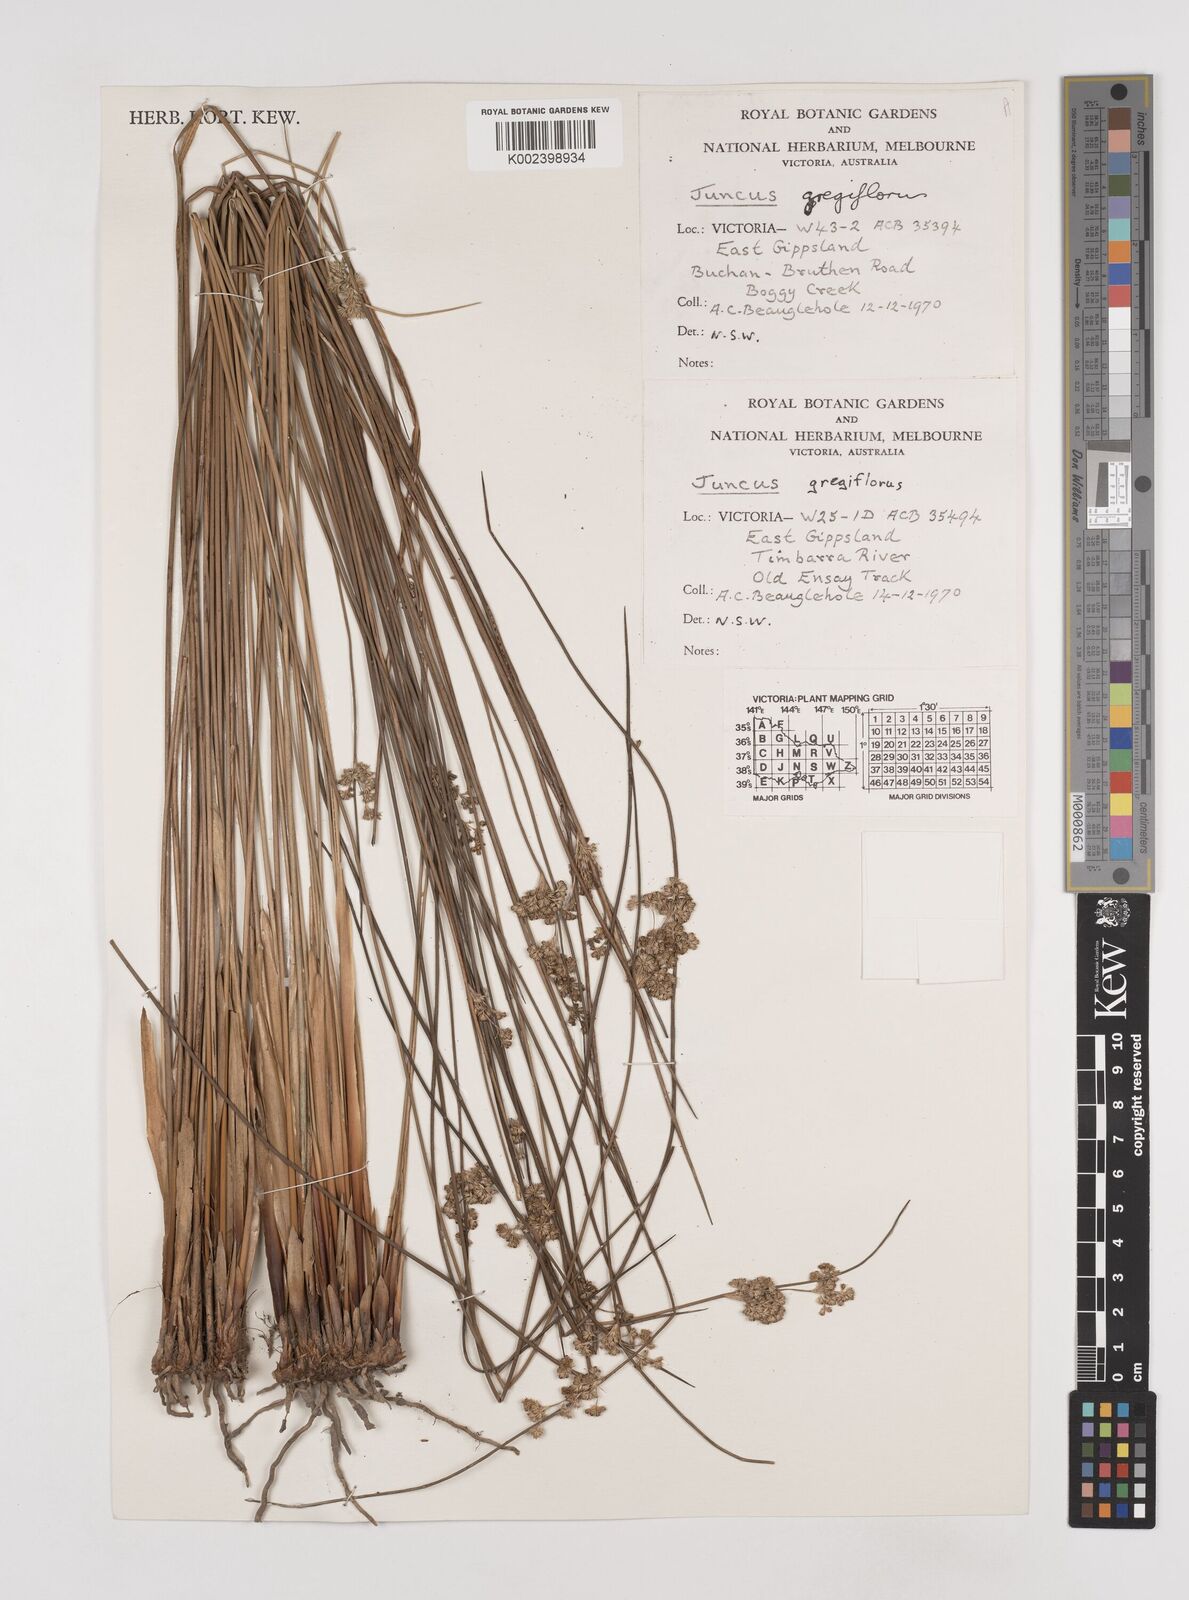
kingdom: Plantae
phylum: Tracheophyta
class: Liliopsida
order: Poales
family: Juncaceae
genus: Juncus
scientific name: Juncus gregiflorus
